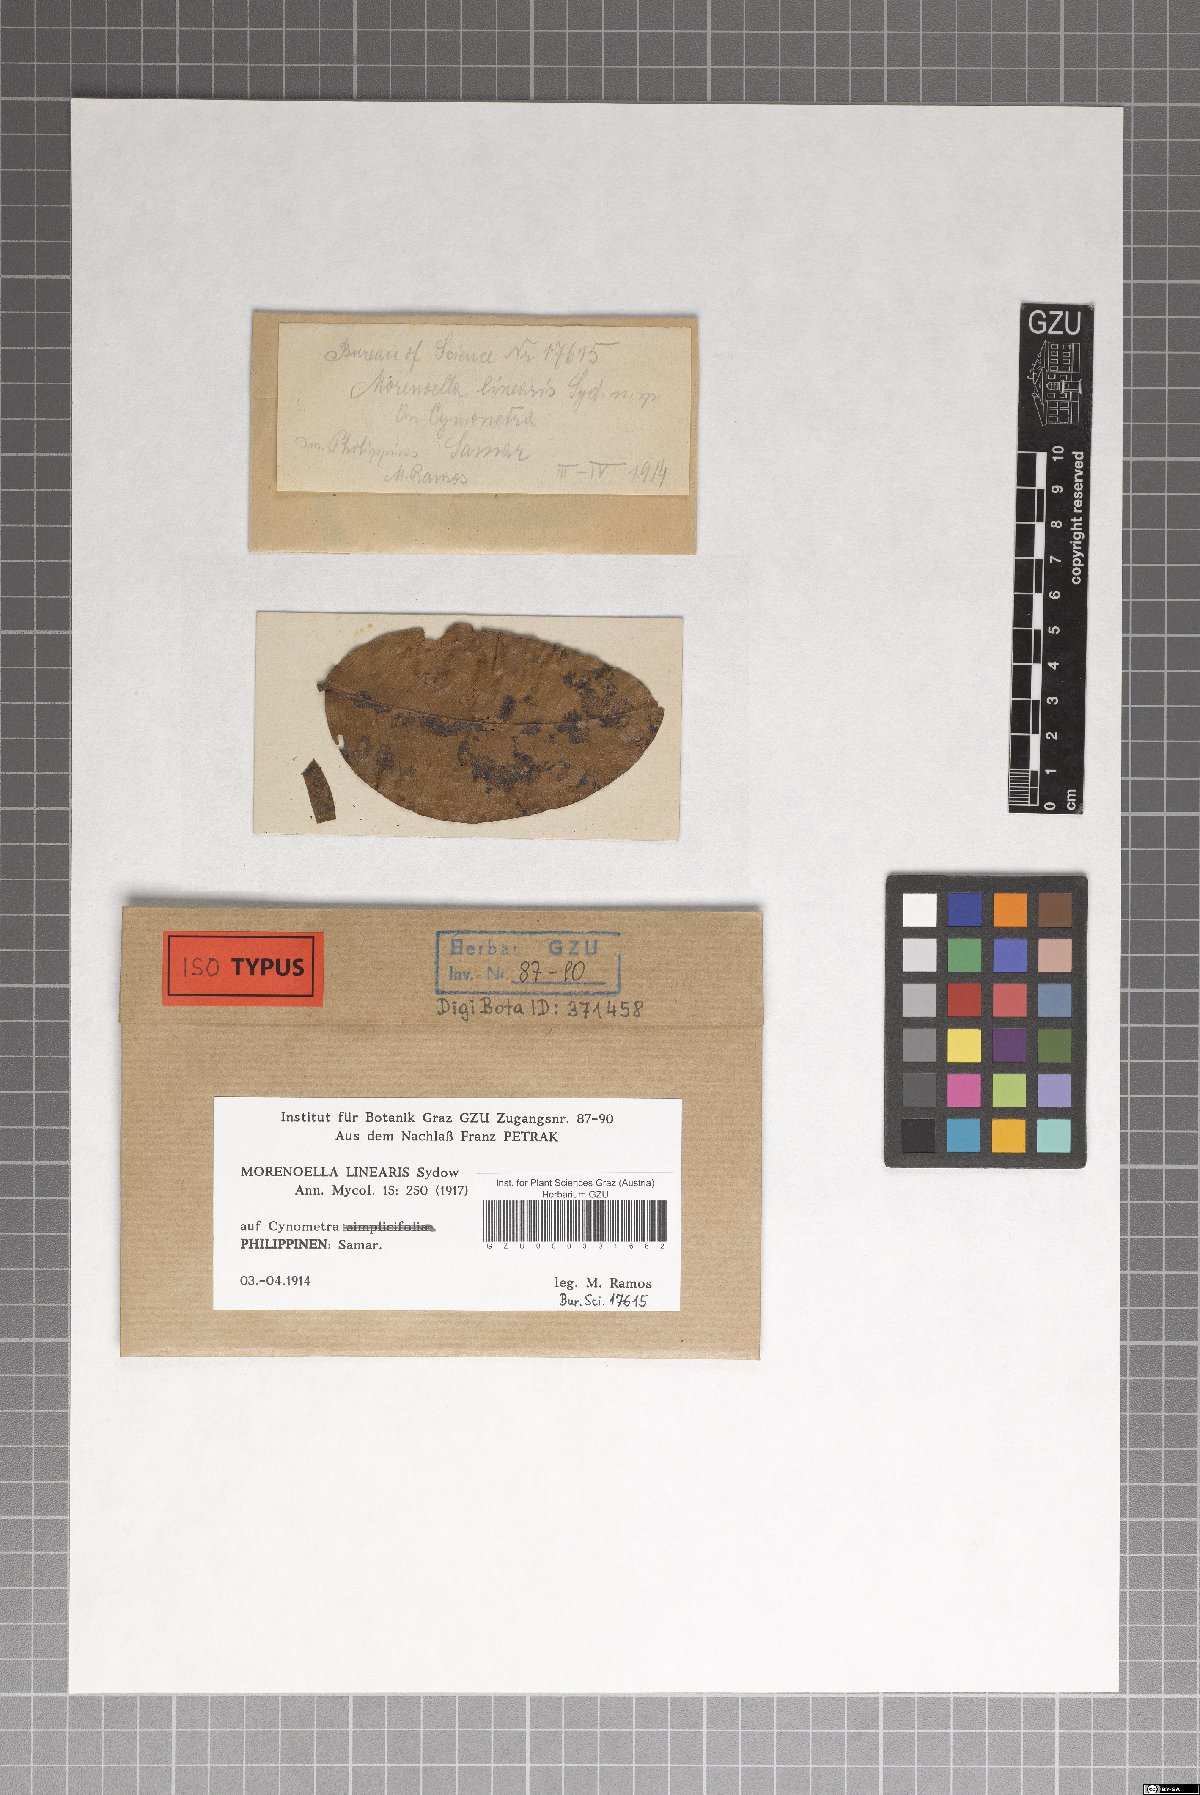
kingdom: Fungi
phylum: Ascomycota
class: Dothideomycetes
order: Asterinales
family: Asterinaceae
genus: Echidnodella
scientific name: Echidnodella linearis
